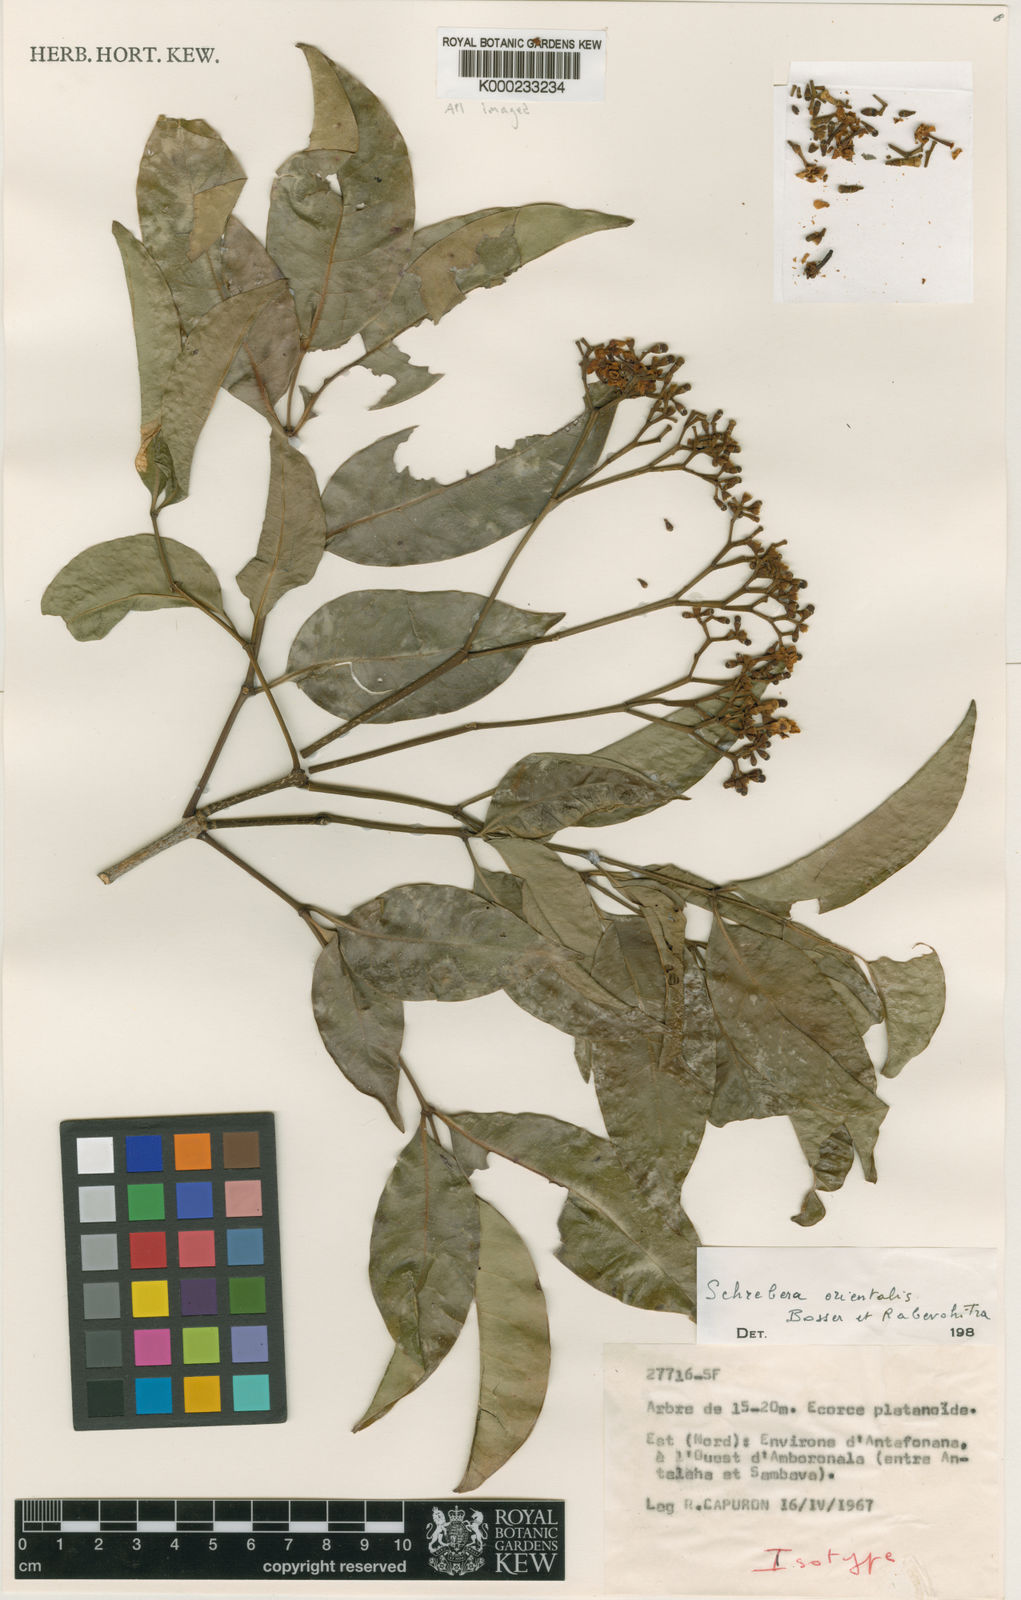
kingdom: Plantae
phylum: Tracheophyta
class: Magnoliopsida
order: Lamiales
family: Oleaceae
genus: Schrebera
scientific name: Schrebera orientalis
